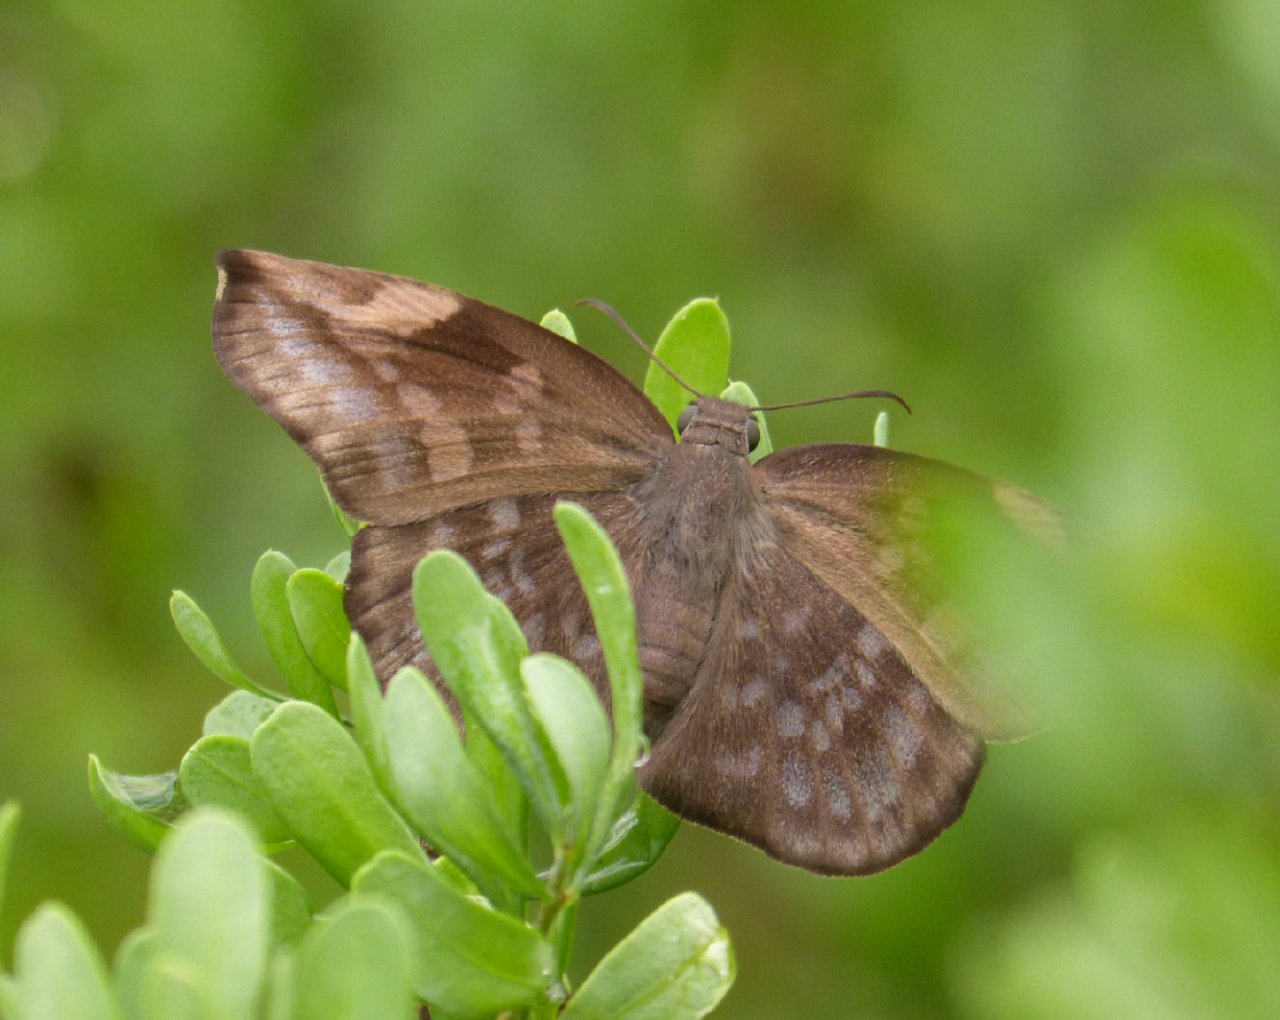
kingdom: Animalia
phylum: Arthropoda
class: Insecta
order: Lepidoptera
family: Hesperiidae
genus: Achlyodes
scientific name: Achlyodes thraso
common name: Sickle-winged Skipper
